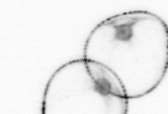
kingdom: Chromista
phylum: Myzozoa
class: Dinophyceae
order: Noctilucales
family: Noctilucaceae
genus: Noctiluca
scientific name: Noctiluca scintillans
